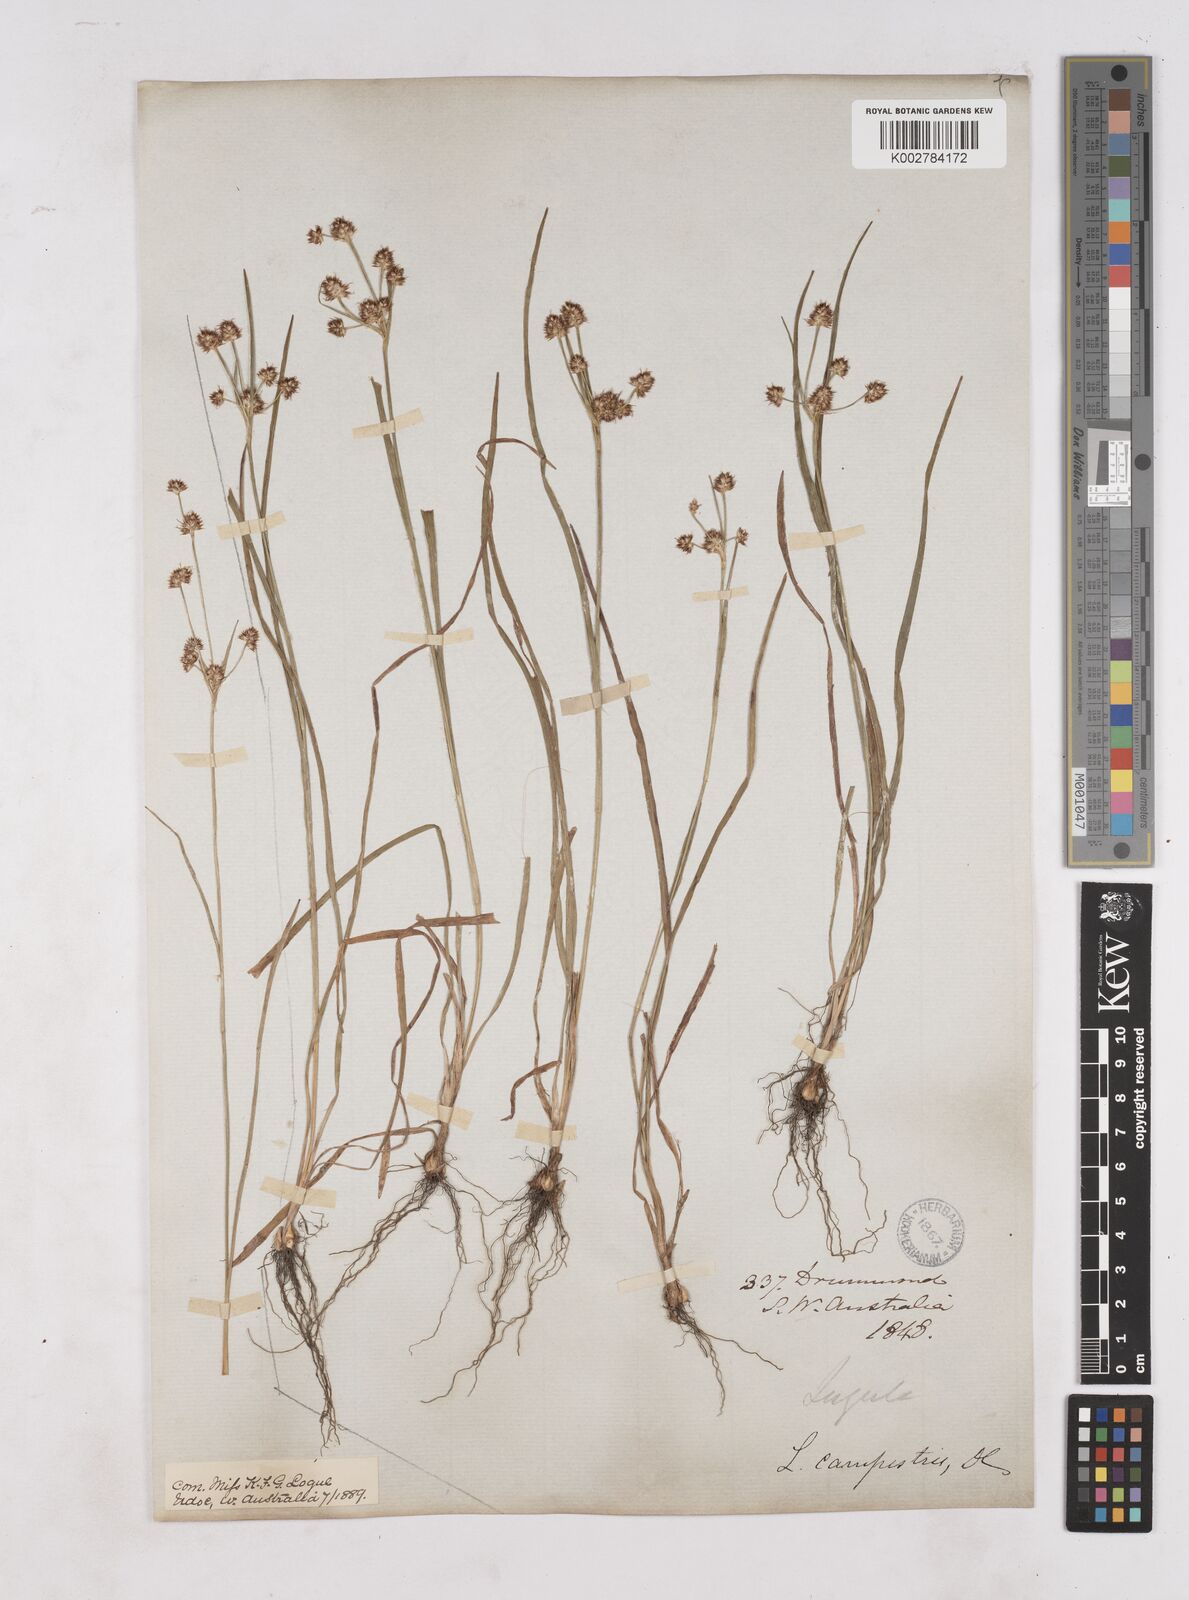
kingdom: Plantae
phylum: Tracheophyta
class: Liliopsida
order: Poales
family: Juncaceae
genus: Luzula
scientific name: Luzula campestris
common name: Field wood-rush
